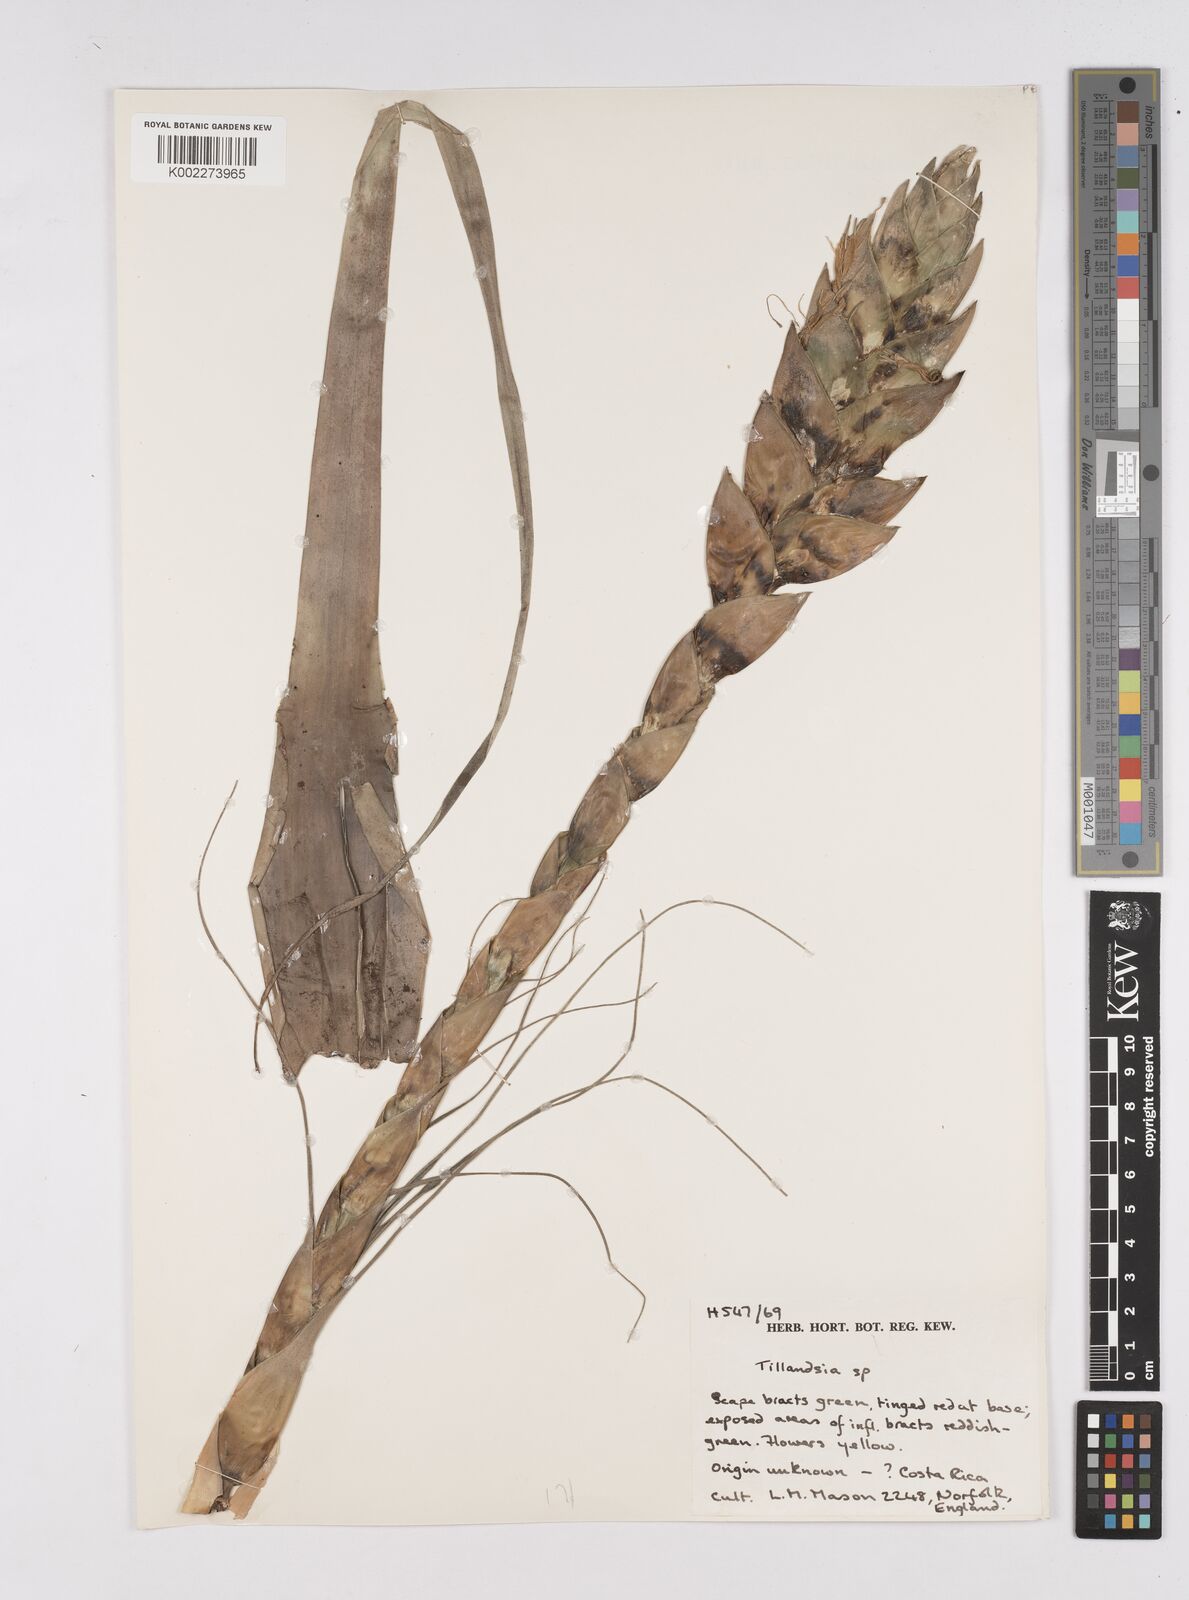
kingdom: Plantae
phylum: Tracheophyta
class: Liliopsida
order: Poales
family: Bromeliaceae
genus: Tillandsia
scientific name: Tillandsia
